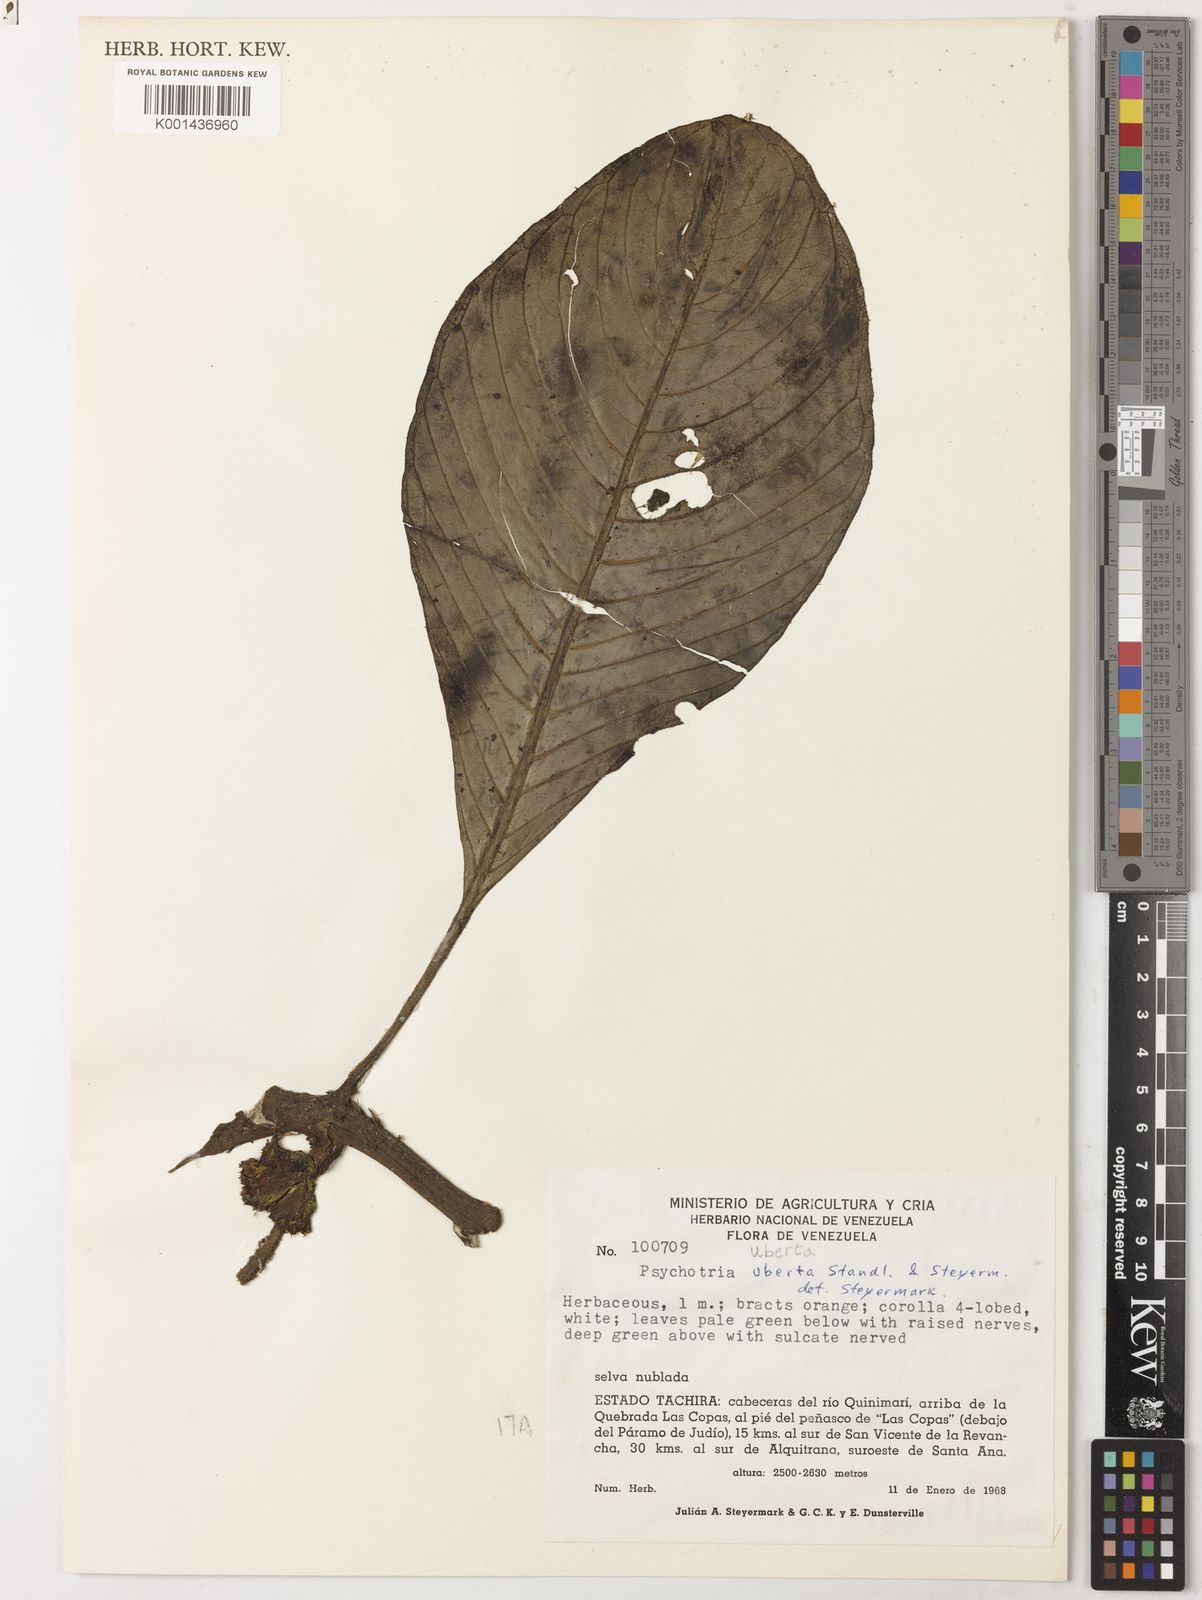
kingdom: Plantae
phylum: Tracheophyta
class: Magnoliopsida
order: Gentianales
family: Rubiaceae
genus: Notopleura
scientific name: Notopleura uberta
